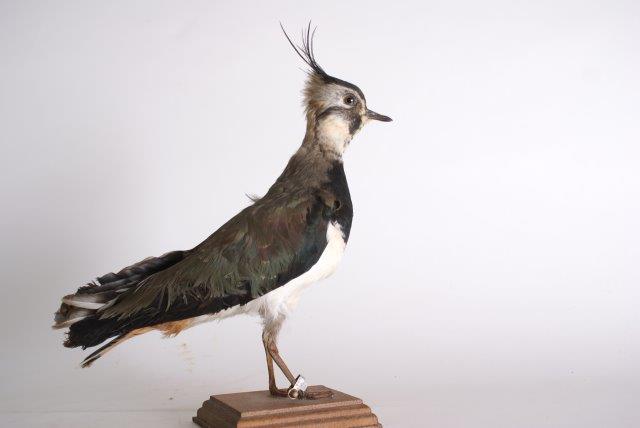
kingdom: Animalia
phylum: Chordata
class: Aves
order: Charadriiformes
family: Charadriidae
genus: Vanellus
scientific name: Vanellus vanellus
